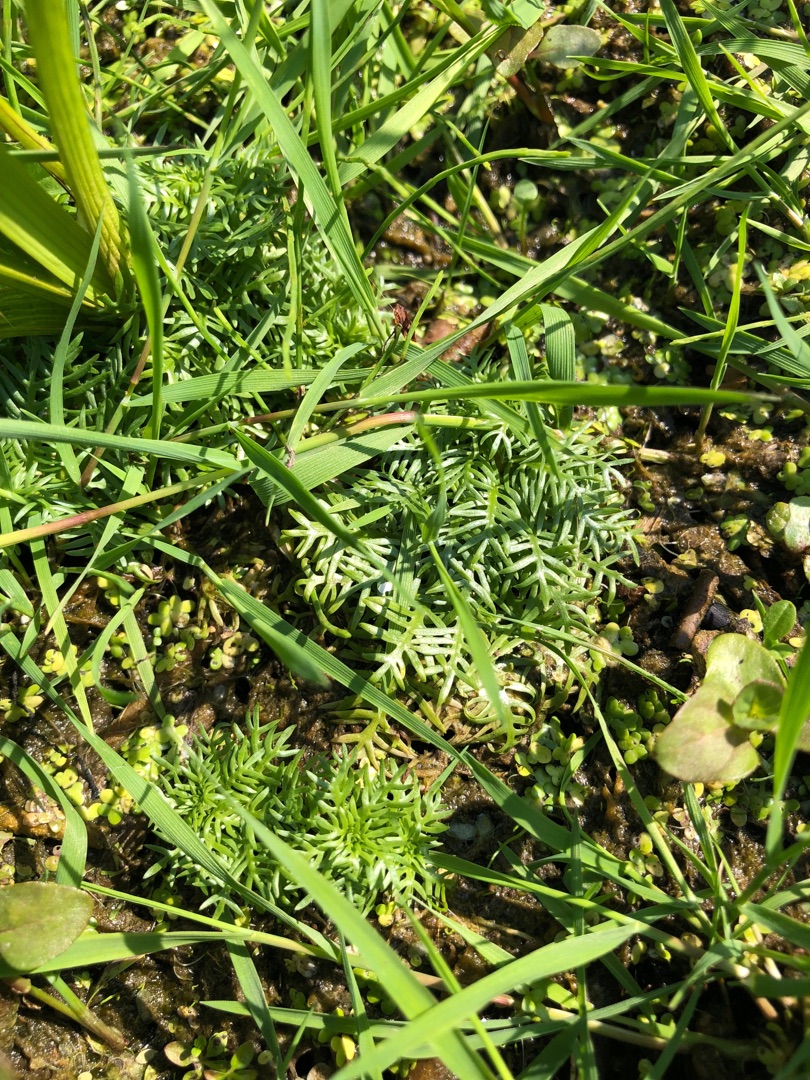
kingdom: Plantae
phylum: Tracheophyta
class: Magnoliopsida
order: Ericales
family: Primulaceae
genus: Hottonia
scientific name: Hottonia palustris
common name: Vandrøllike
